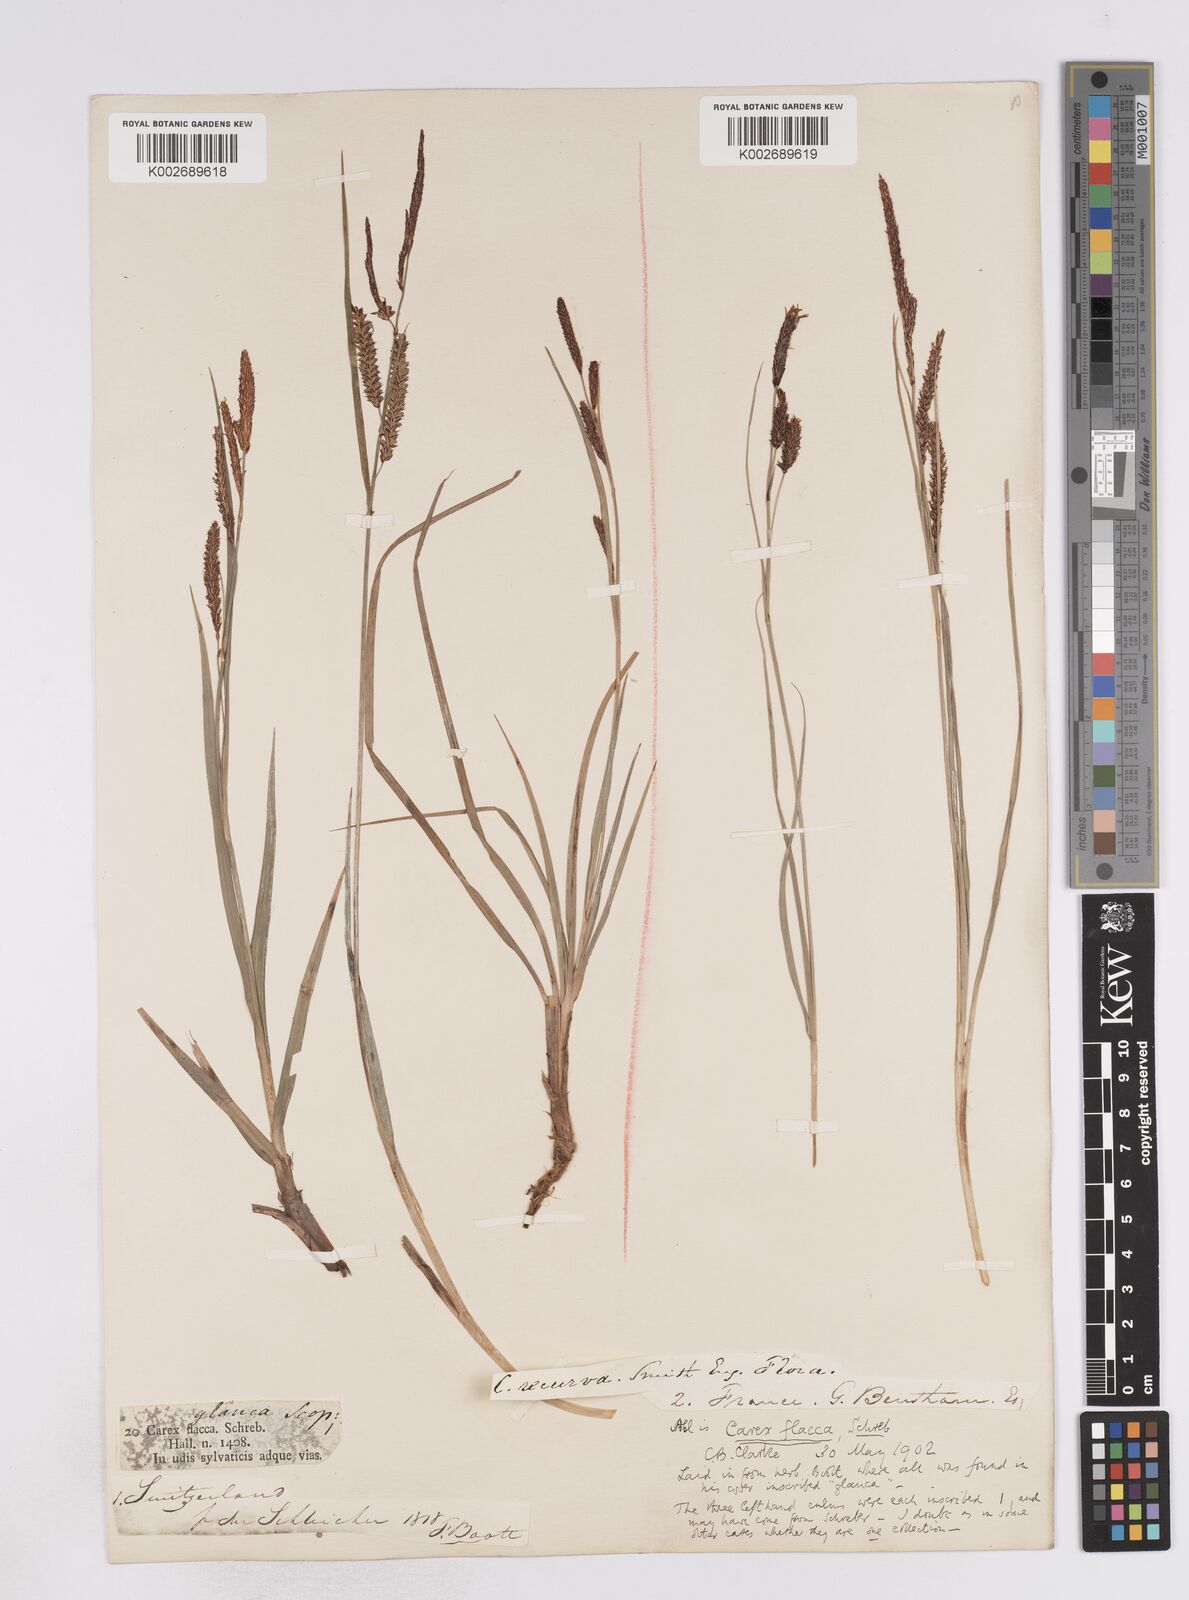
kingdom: Plantae
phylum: Tracheophyta
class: Liliopsida
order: Poales
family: Cyperaceae
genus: Carex
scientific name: Carex flacca
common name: Glaucous sedge
